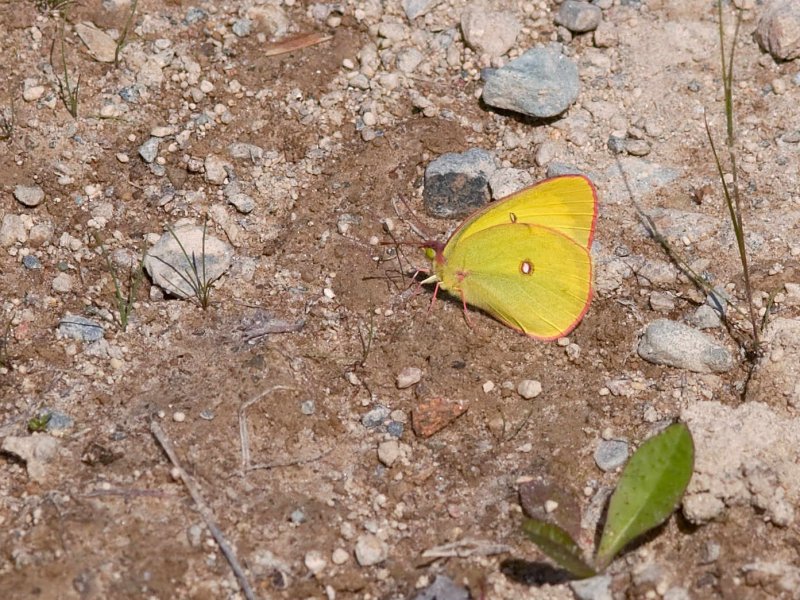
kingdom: Animalia
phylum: Arthropoda
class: Insecta
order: Lepidoptera
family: Pieridae
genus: Colias
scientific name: Colias interior
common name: Pink-edged Sulphur
